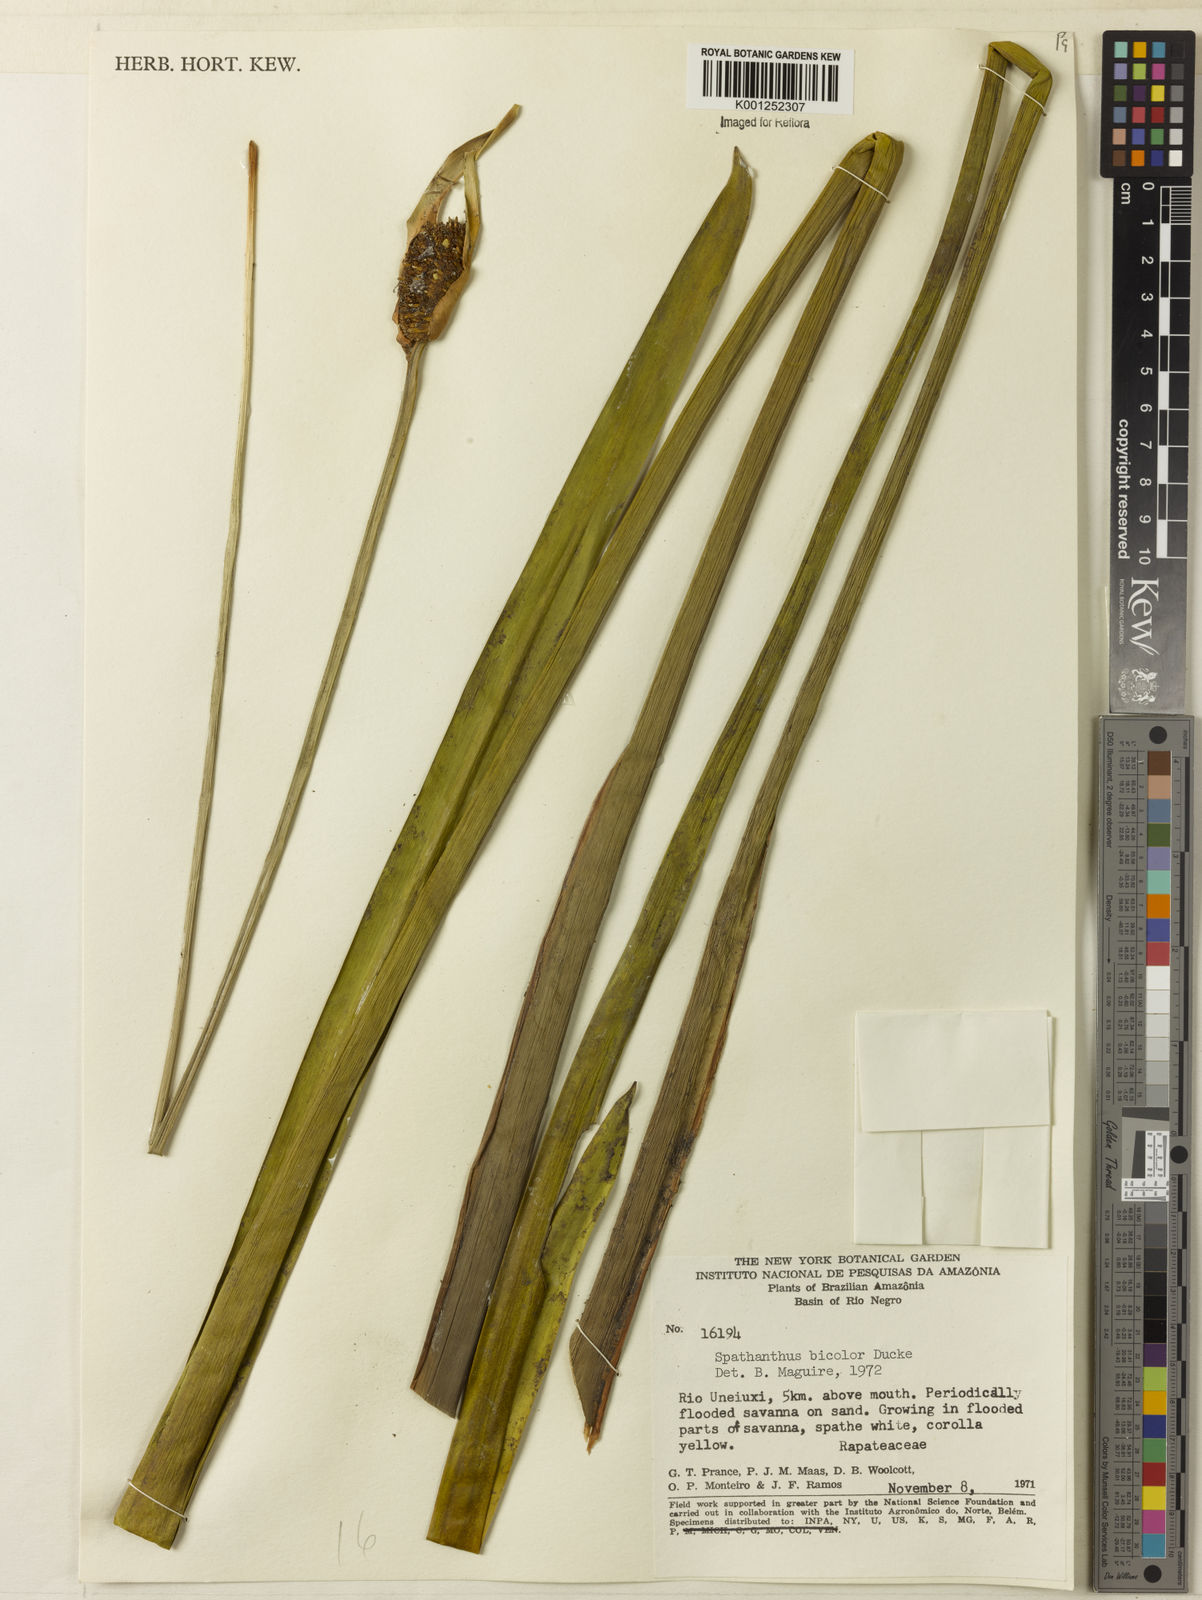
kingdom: Plantae
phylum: Tracheophyta
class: Liliopsida
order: Poales
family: Rapateaceae
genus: Spathanthus
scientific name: Spathanthus bicolor
